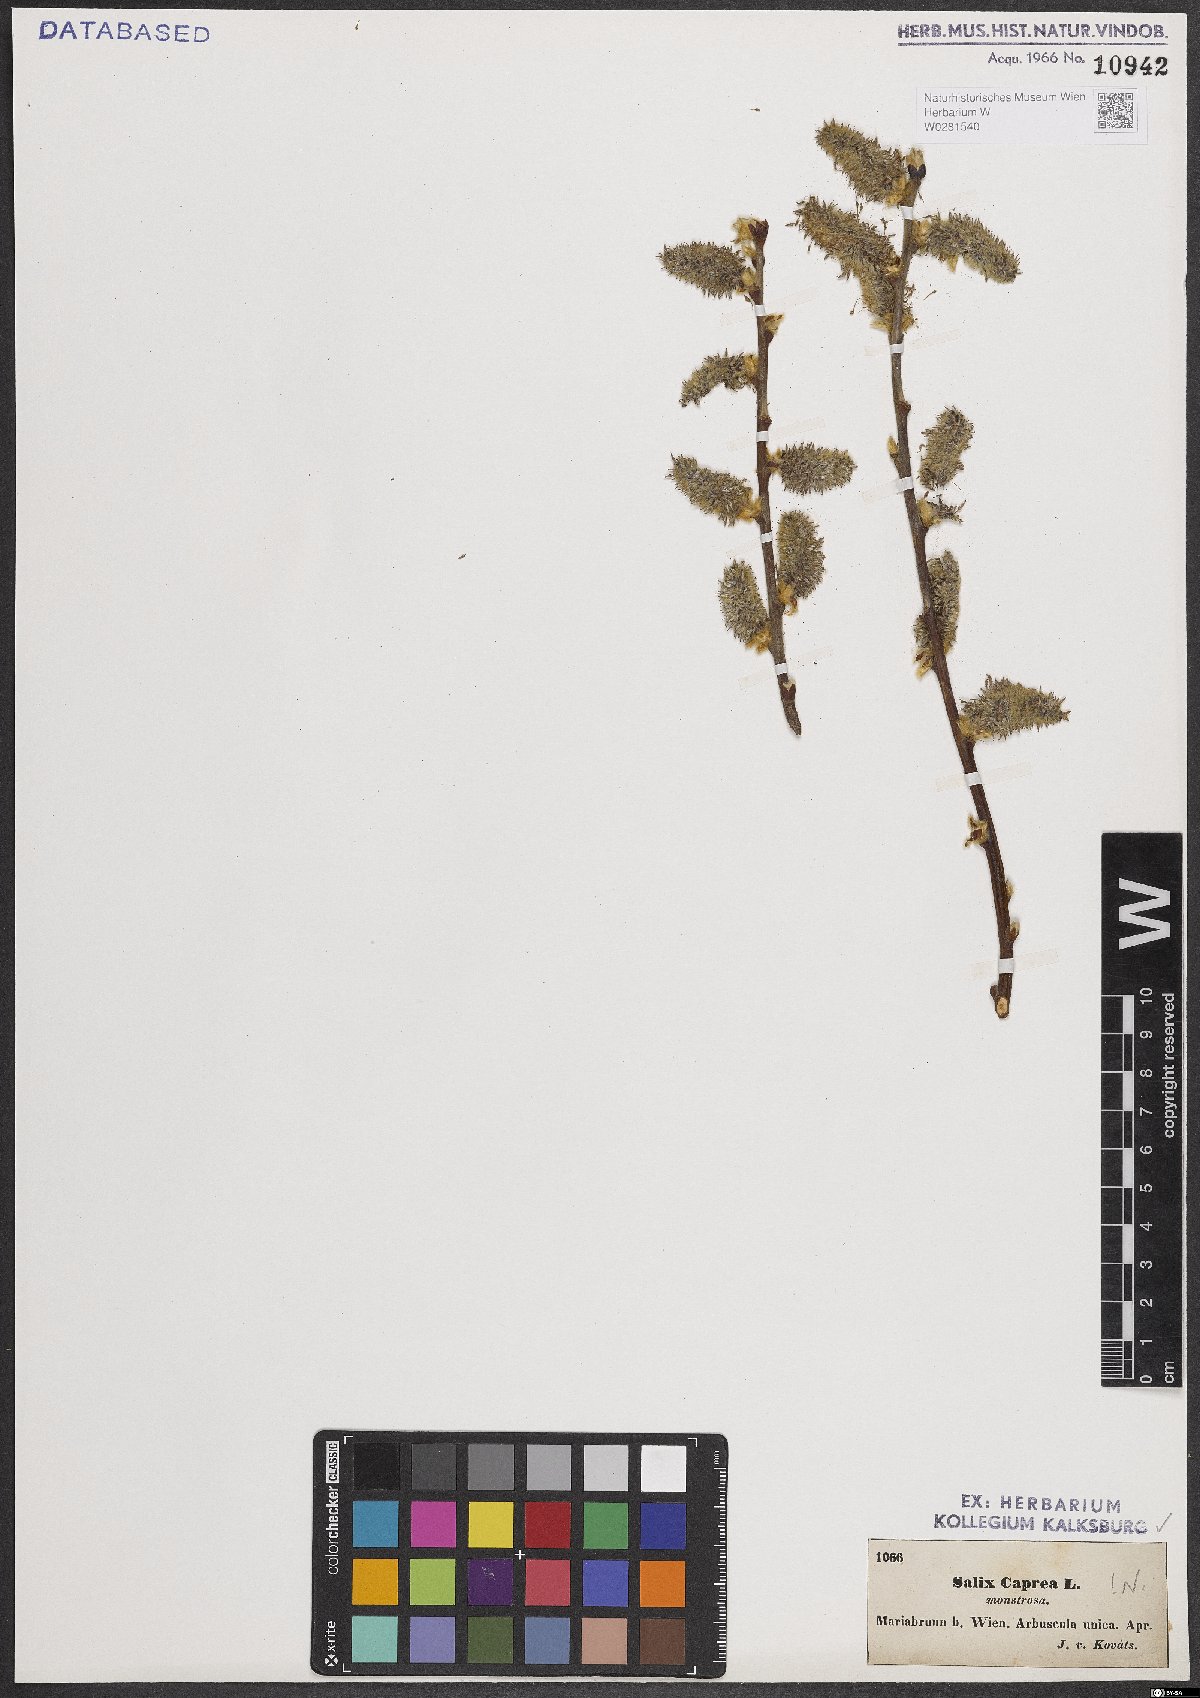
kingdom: Plantae
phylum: Tracheophyta
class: Magnoliopsida
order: Malpighiales
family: Salicaceae
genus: Salix
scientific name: Salix caprea
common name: Goat willow
